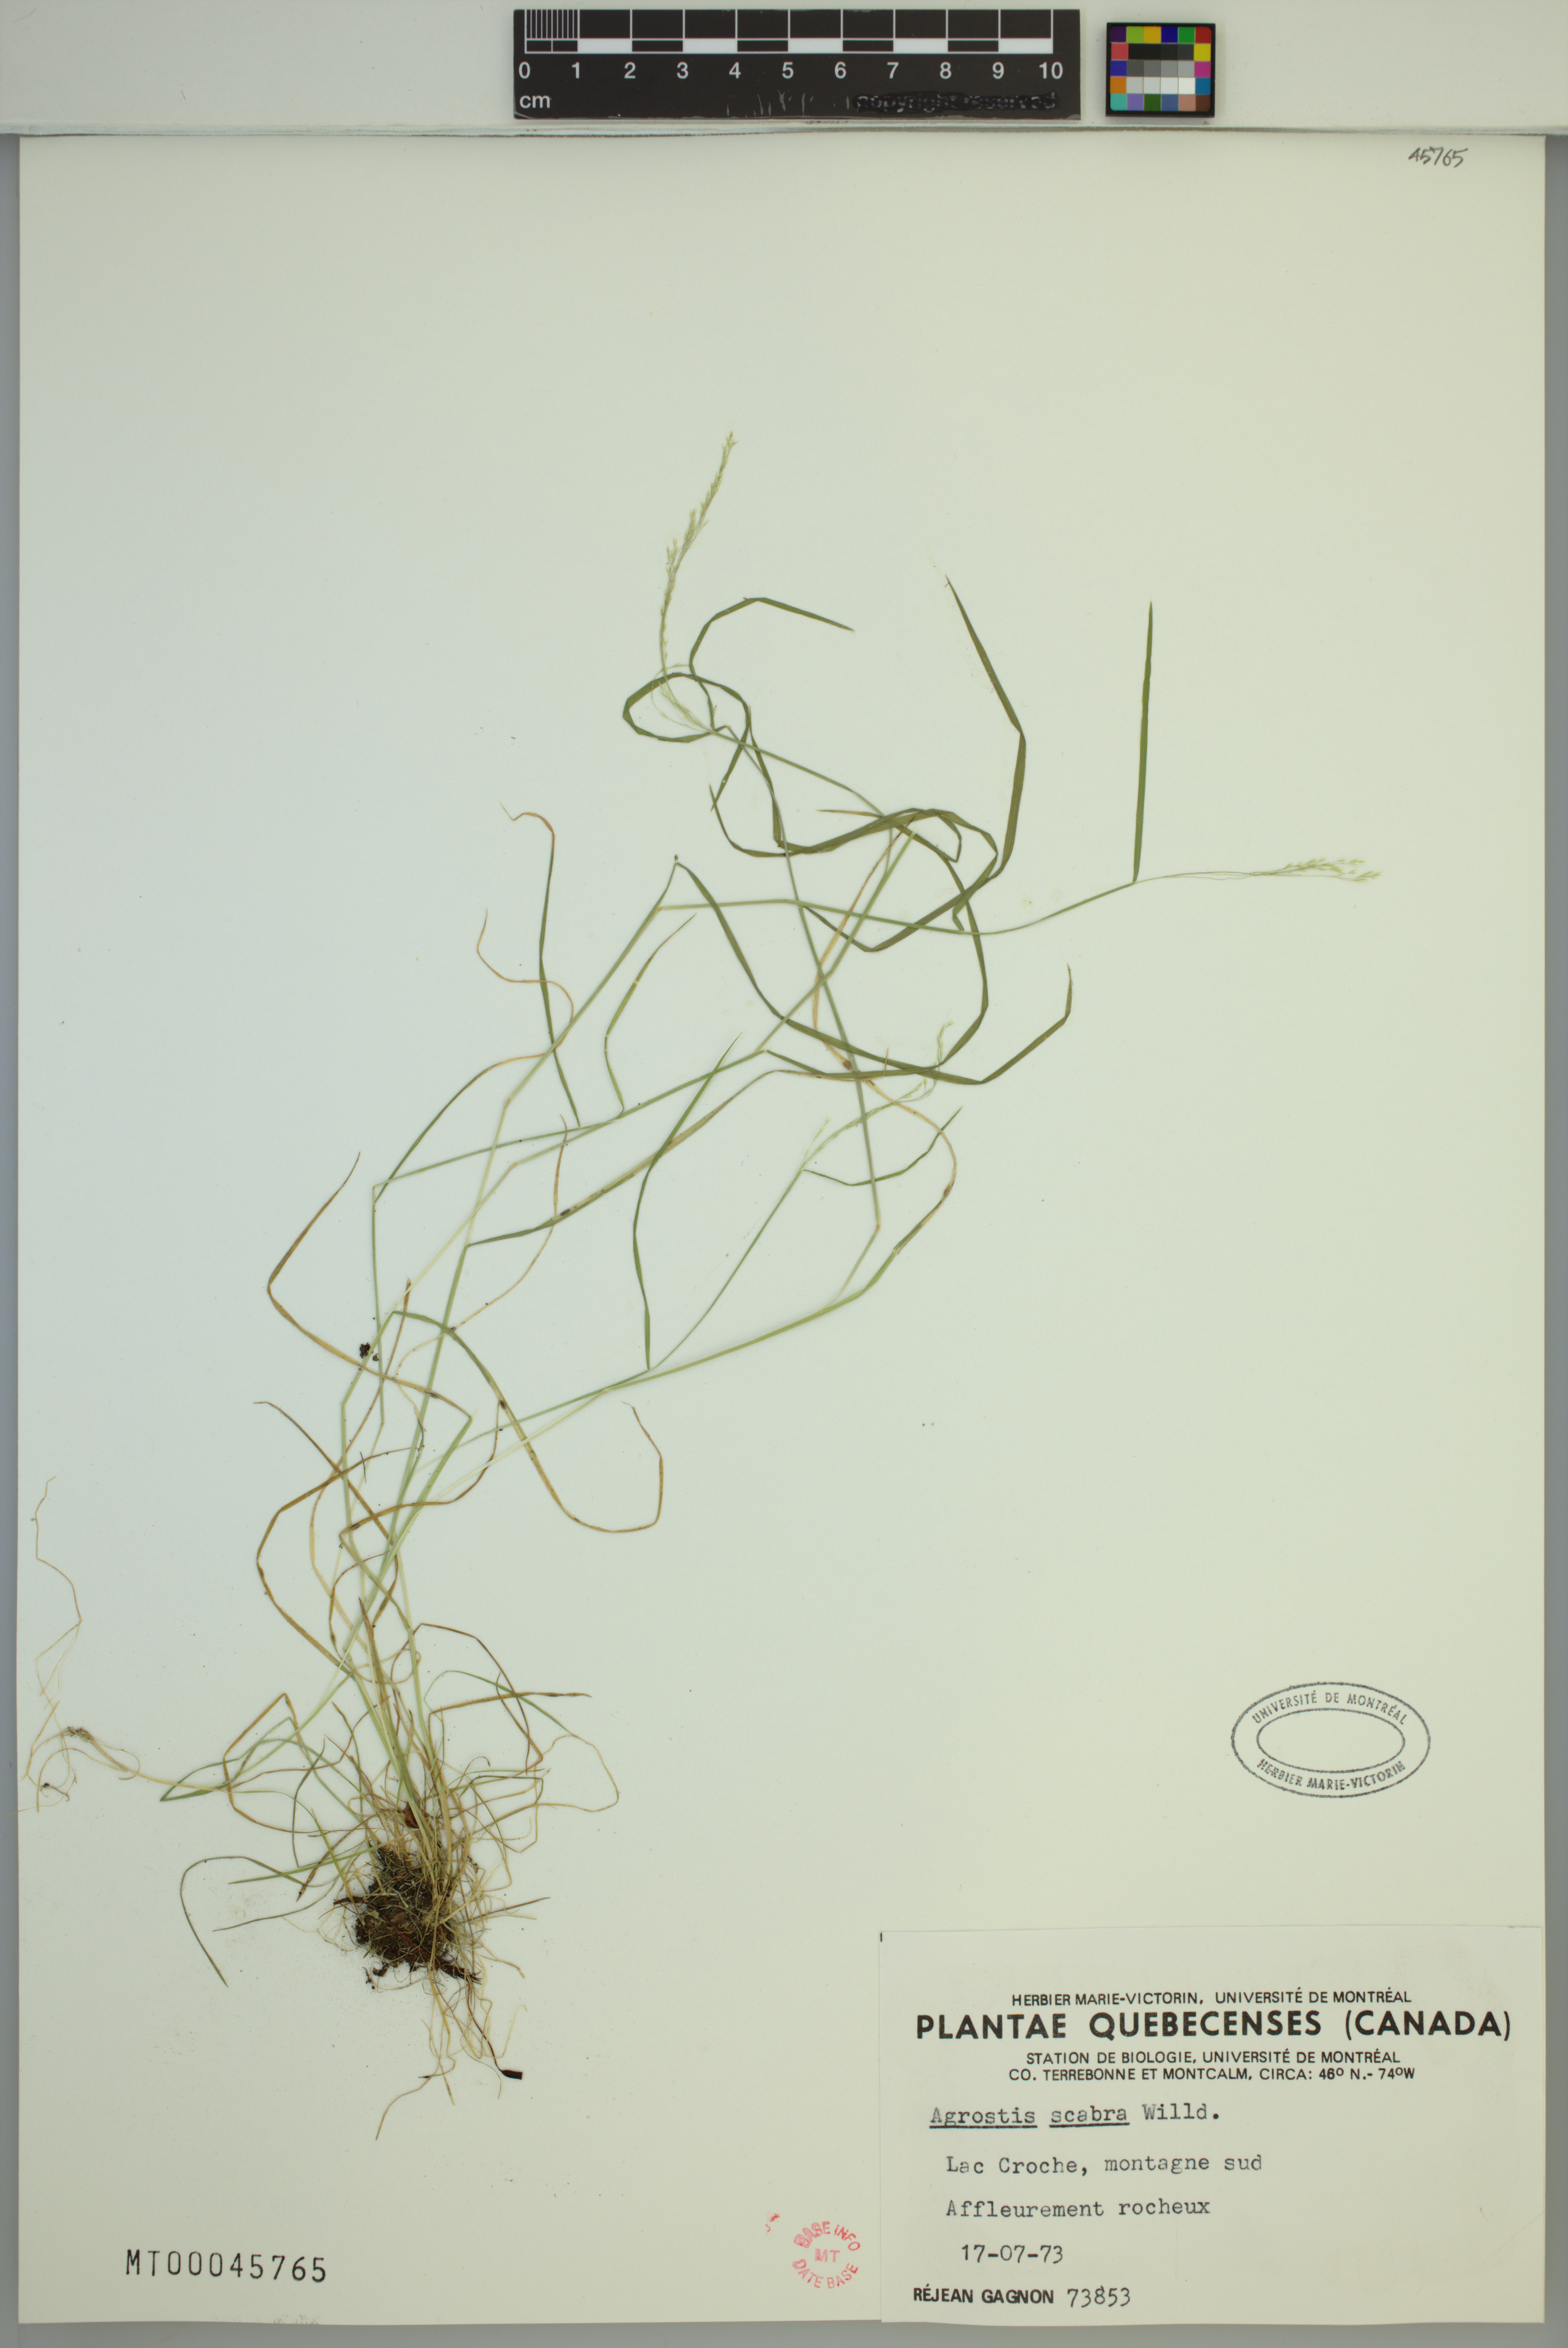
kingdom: Plantae
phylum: Tracheophyta
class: Liliopsida
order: Poales
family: Poaceae
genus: Agrostis
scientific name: Agrostis scabra
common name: Rough bent
